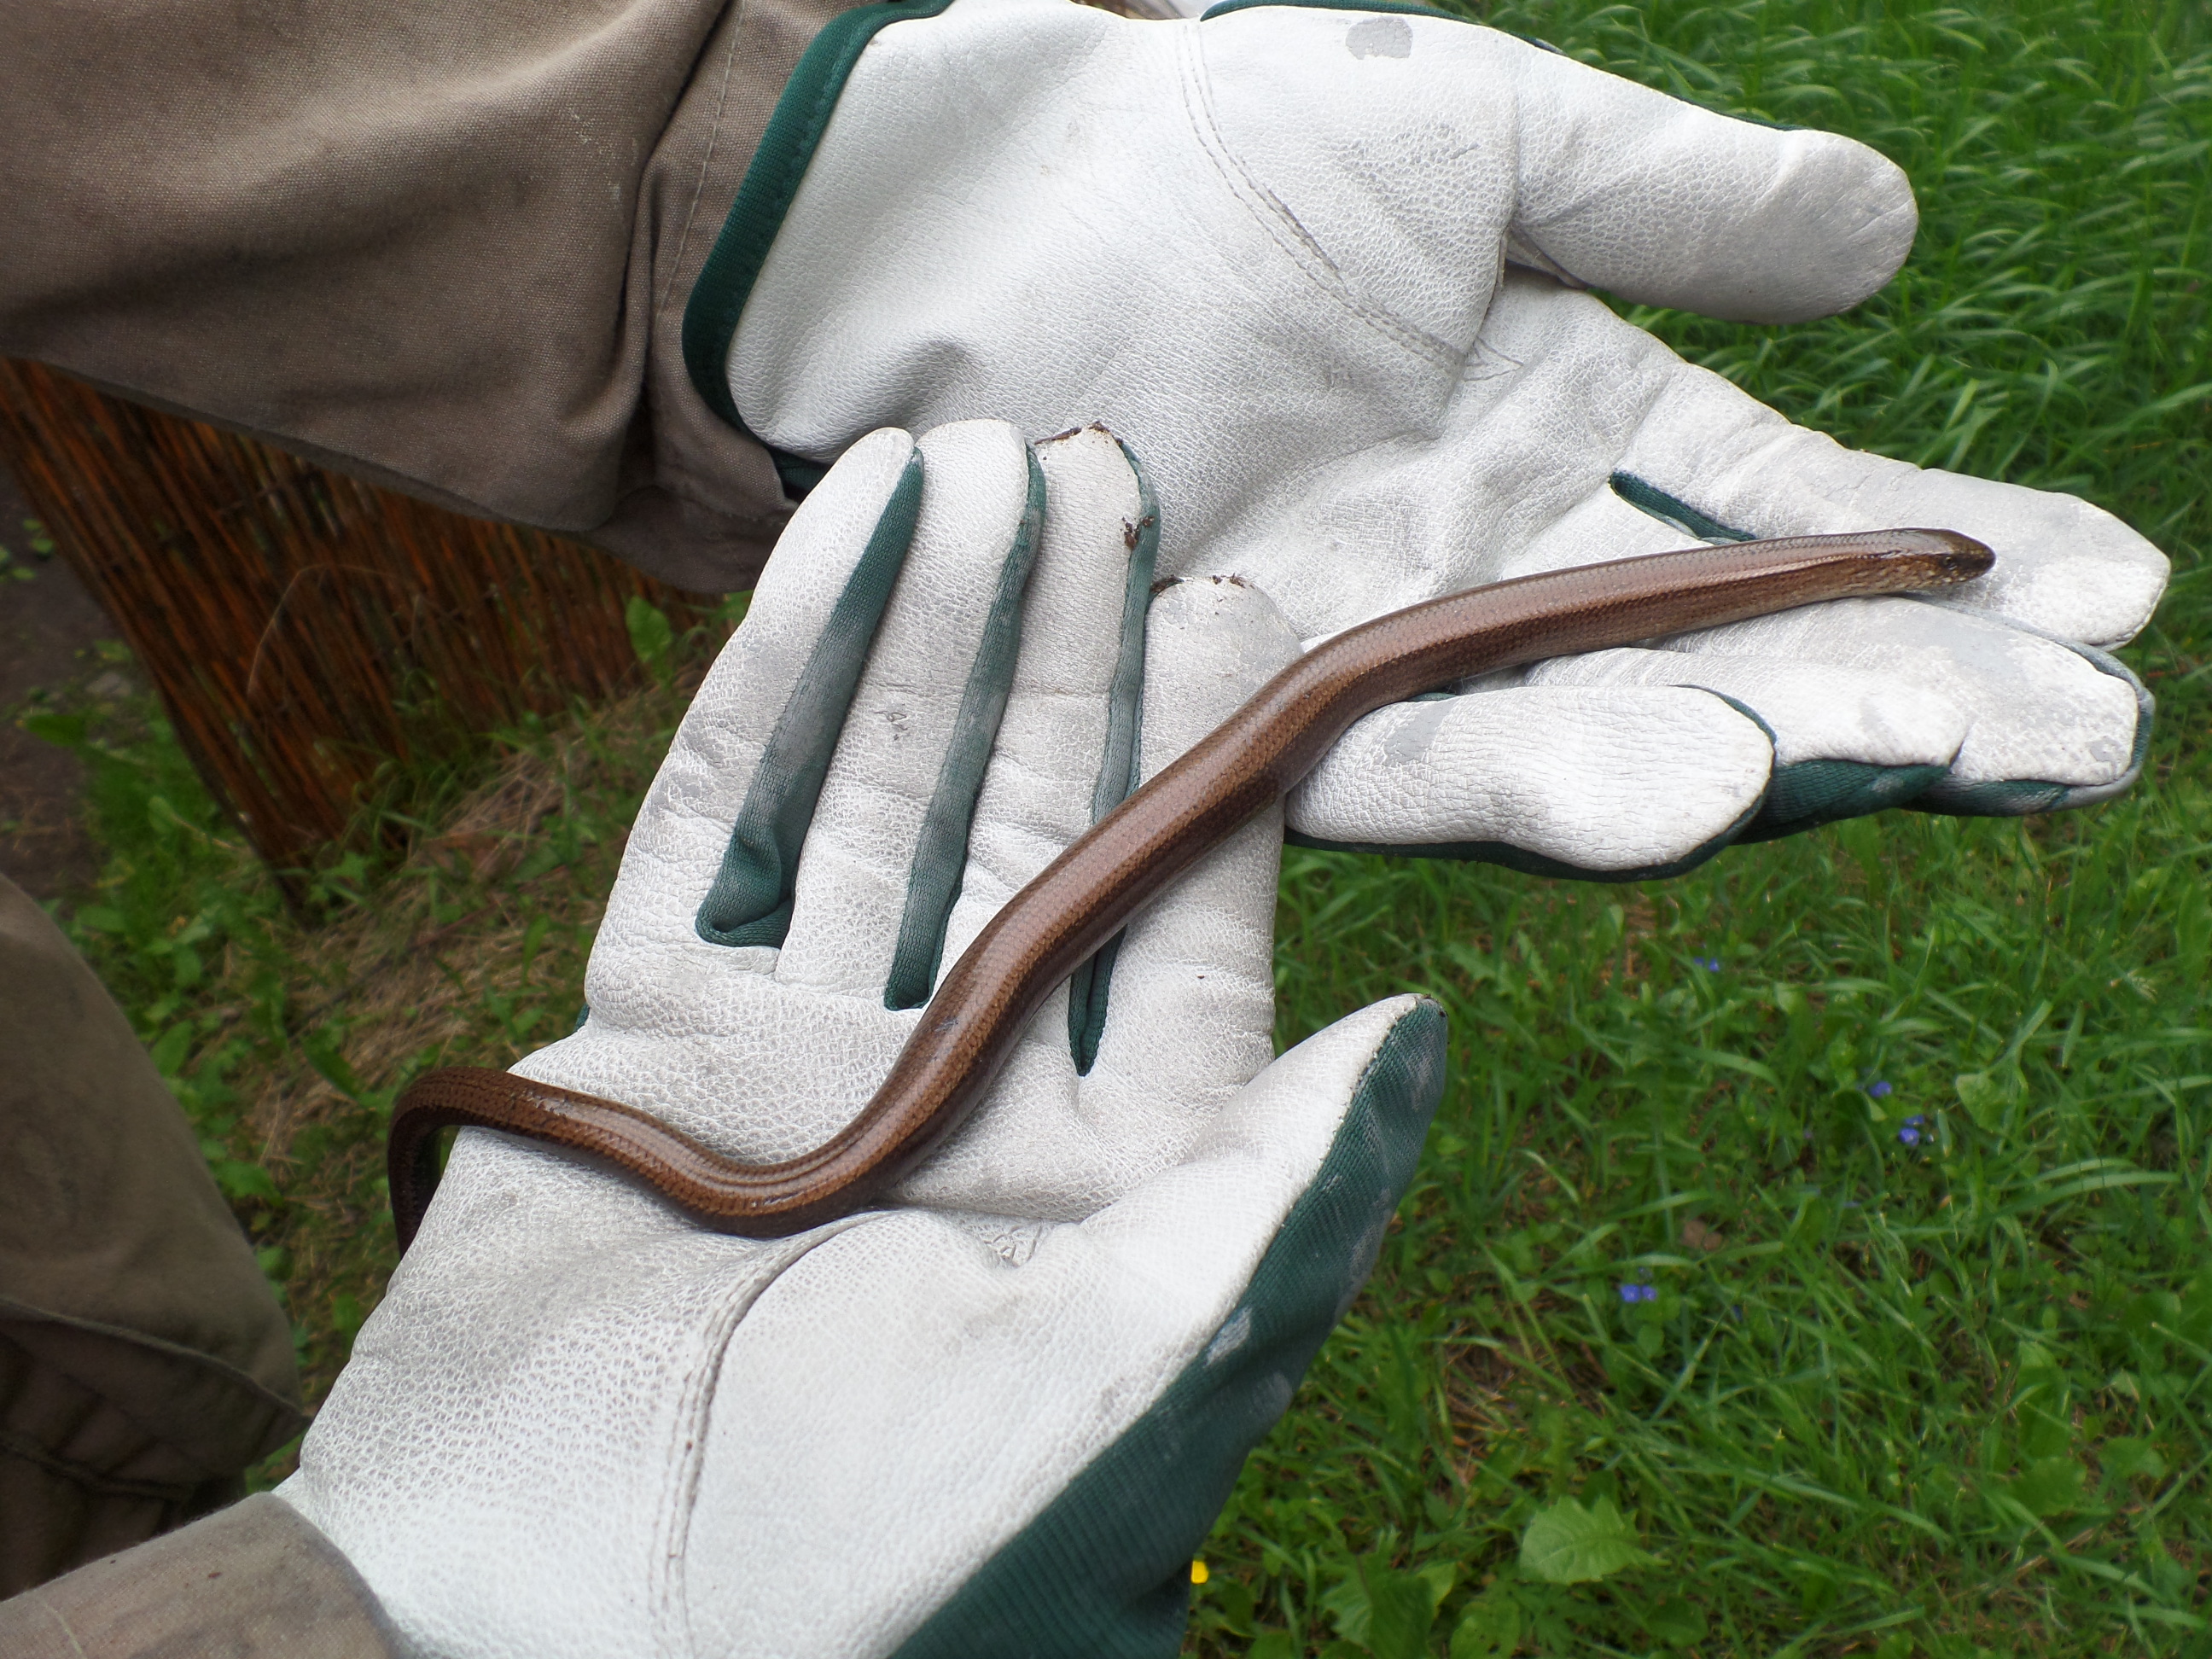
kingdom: Animalia
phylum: Chordata
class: Squamata
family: Anguidae
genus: Anguis
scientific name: Anguis colchica
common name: Slow worm
